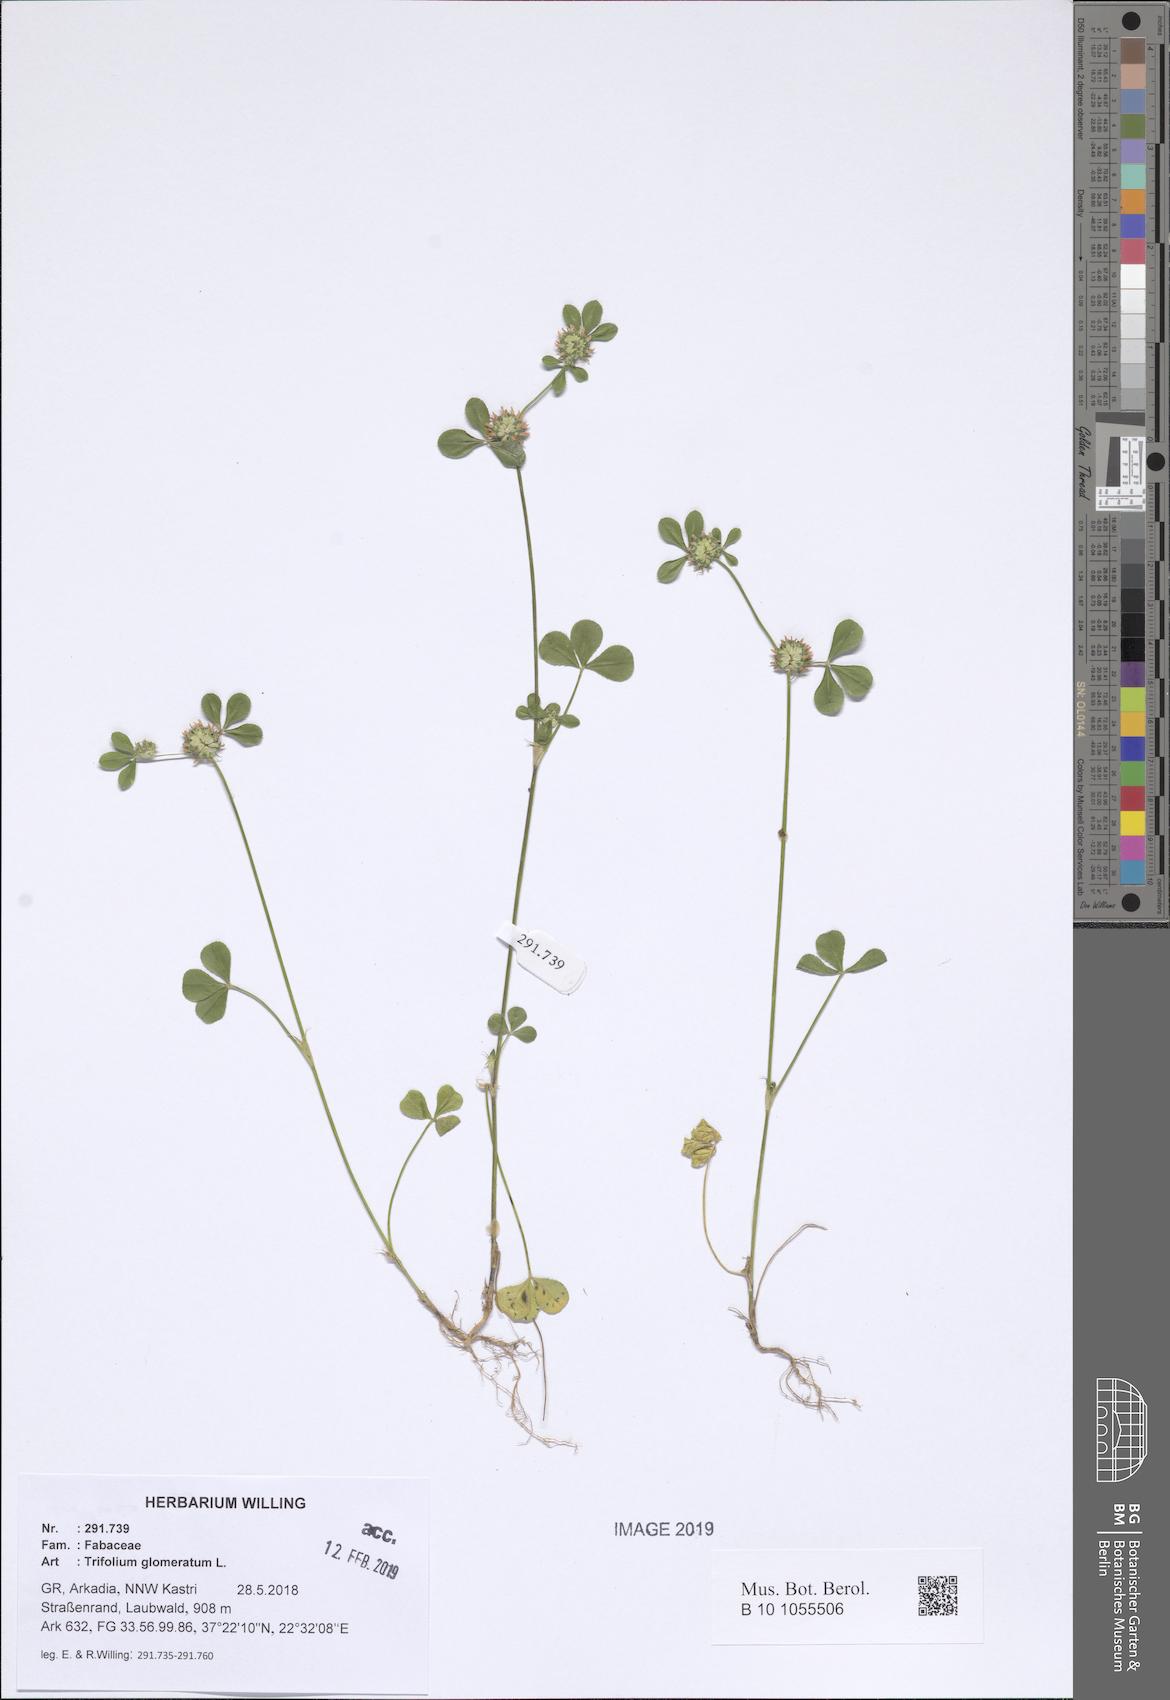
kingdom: Plantae
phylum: Tracheophyta
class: Magnoliopsida
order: Fabales
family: Fabaceae
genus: Trifolium
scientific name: Trifolium glomeratum
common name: Clustered clover
